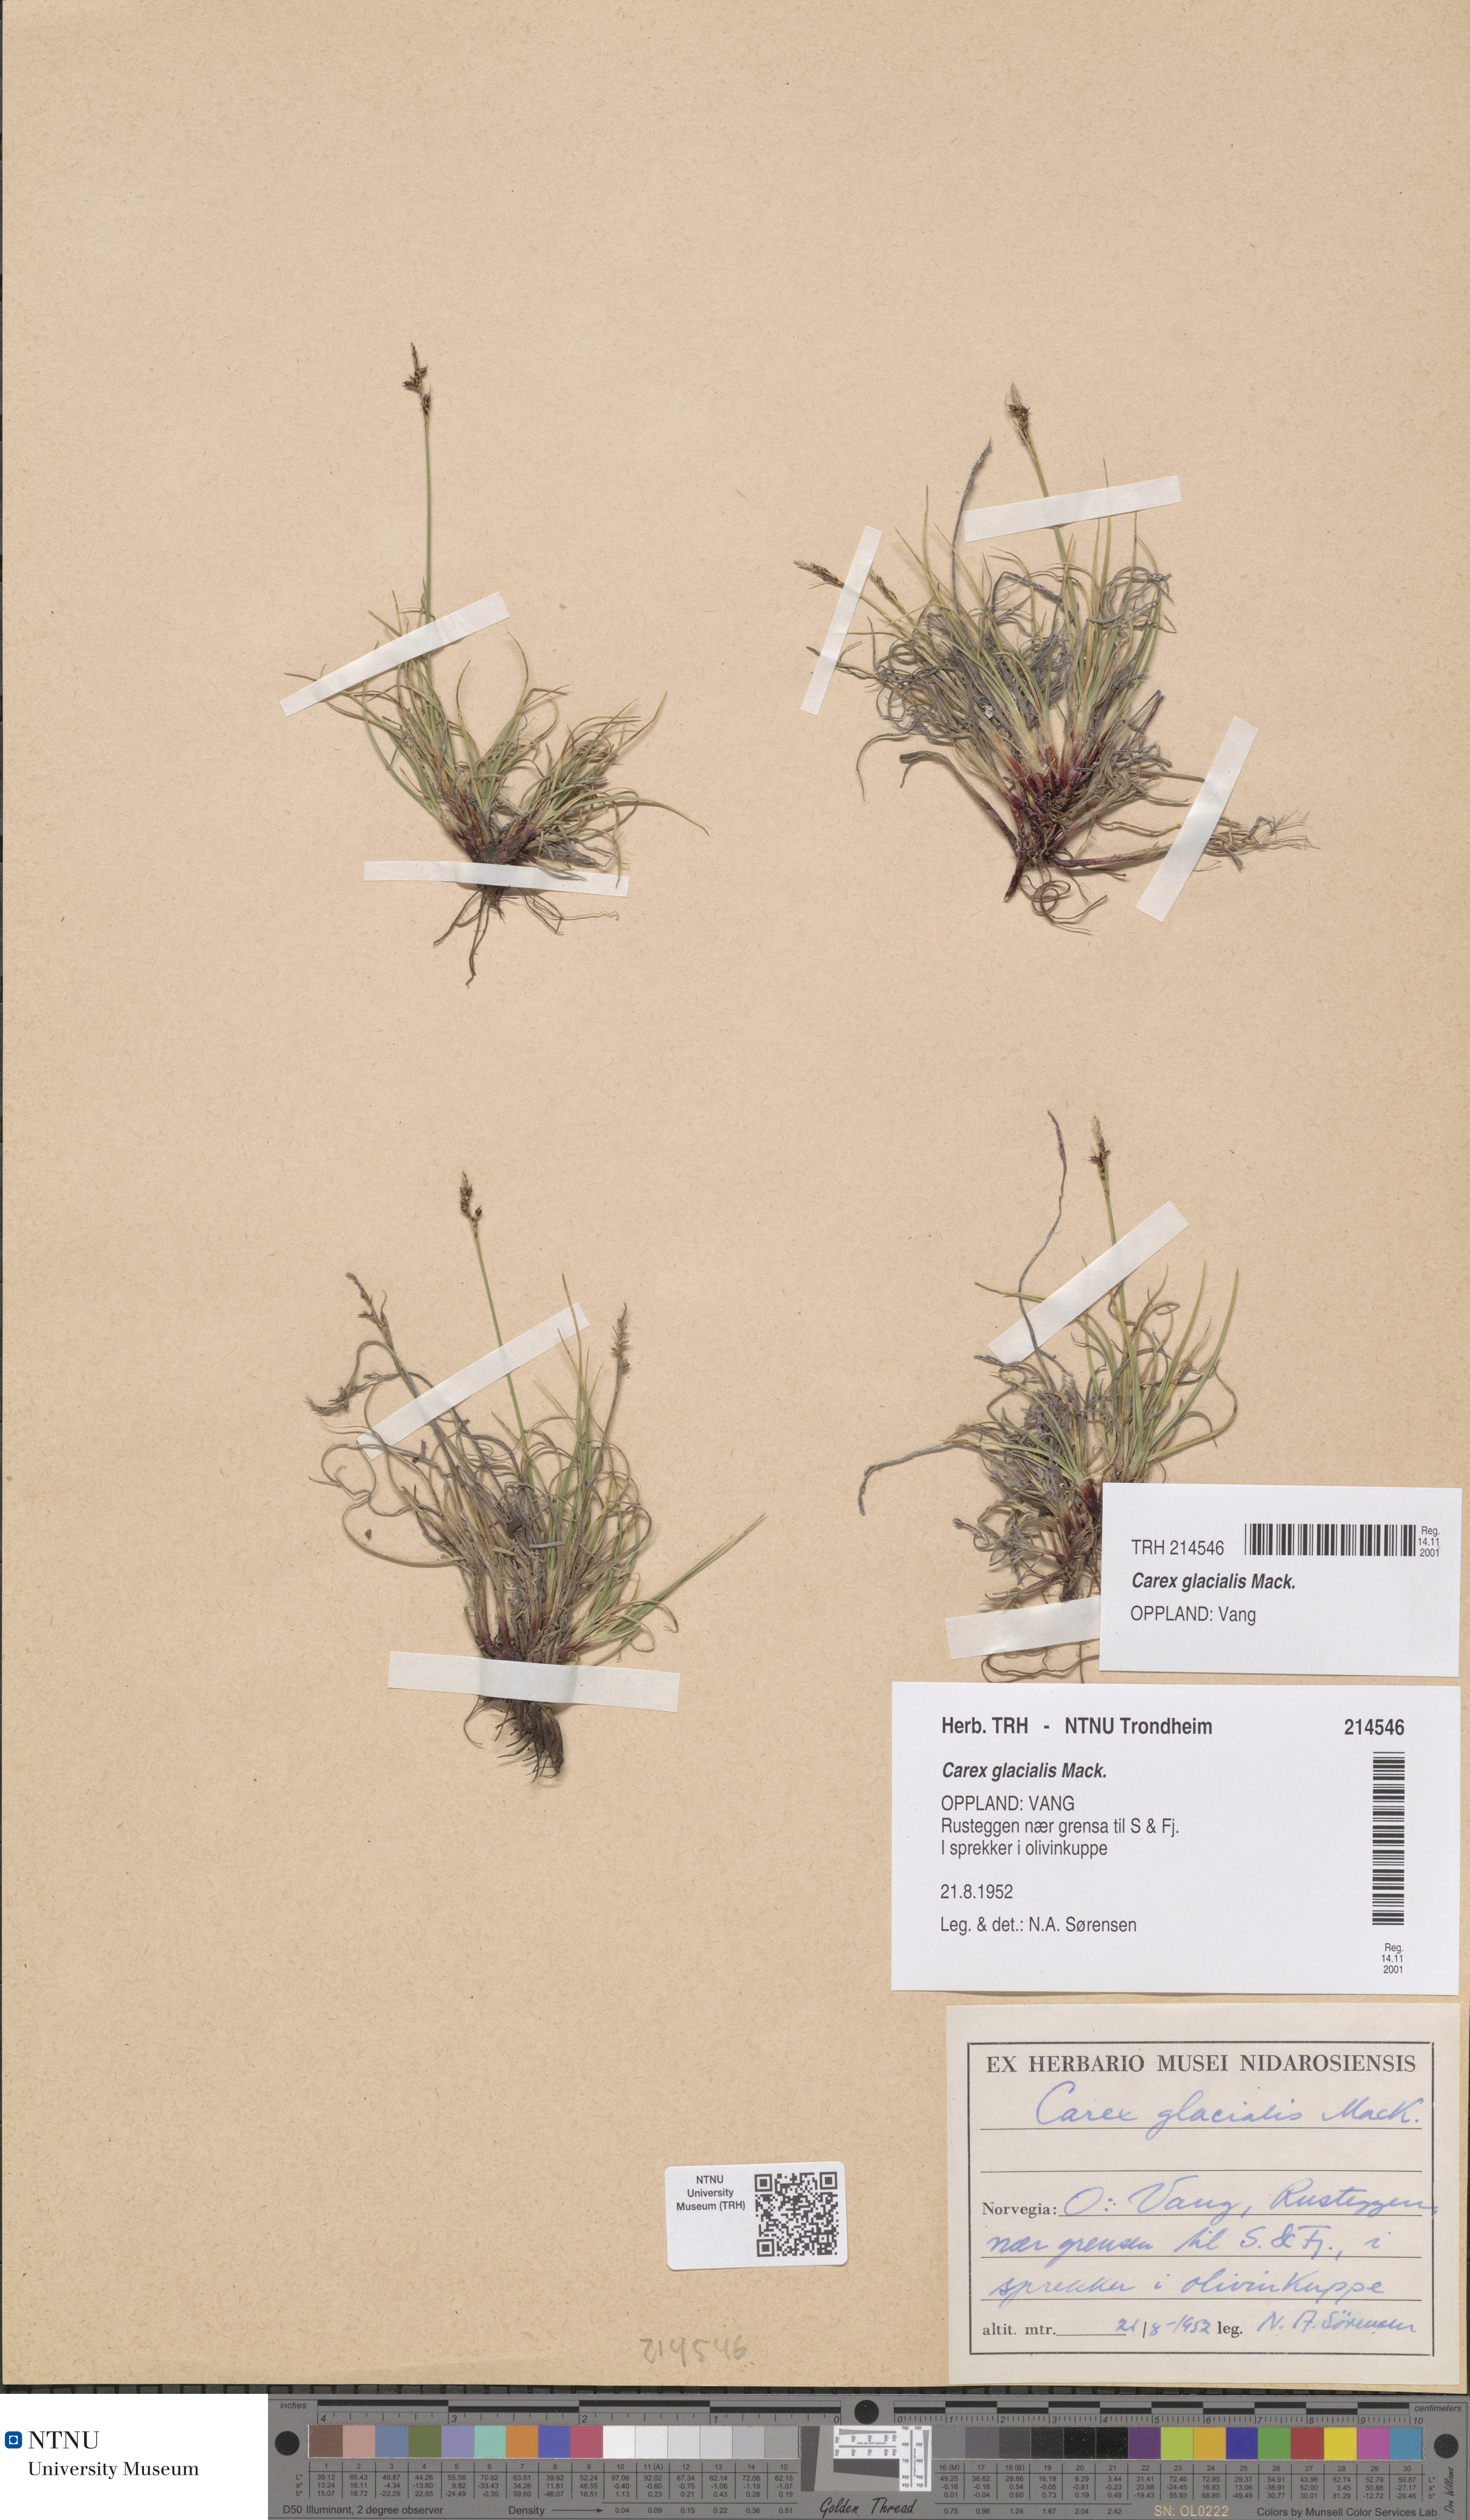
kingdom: Plantae
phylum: Tracheophyta
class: Liliopsida
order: Poales
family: Cyperaceae
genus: Carex
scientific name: Carex glacialis
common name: Newfoundland sedge
